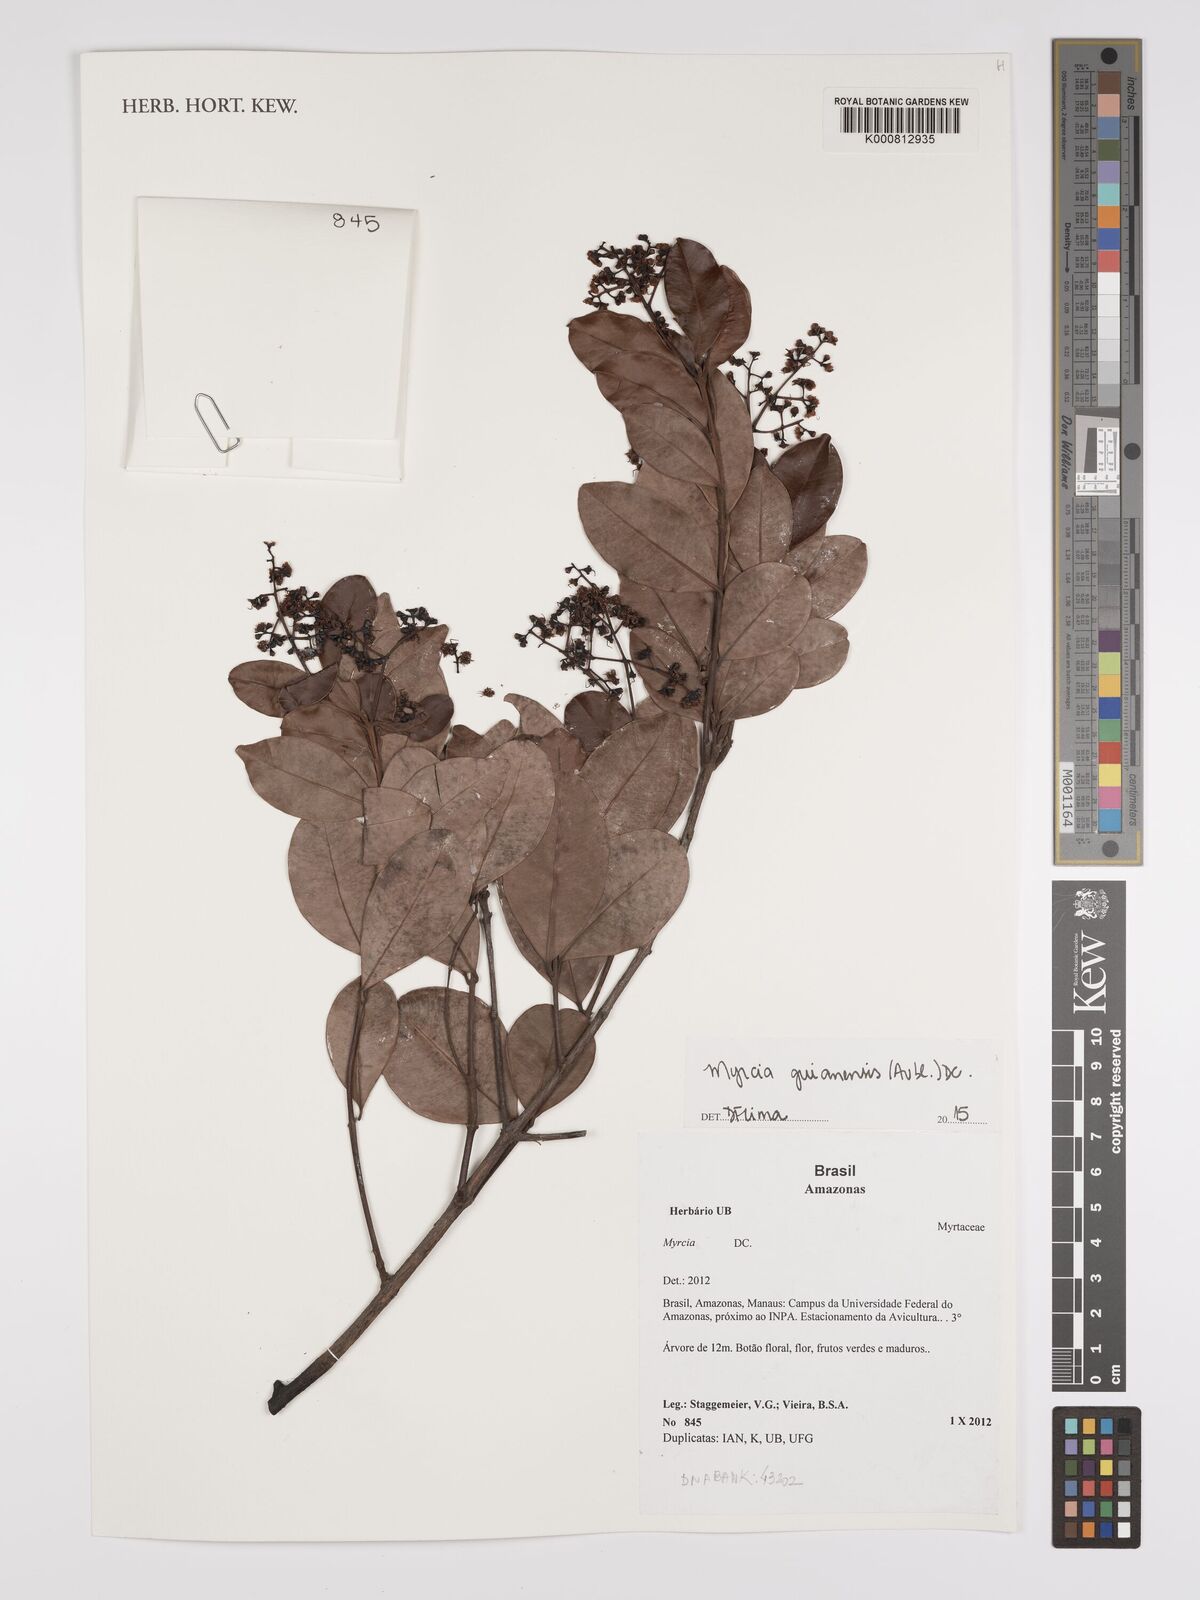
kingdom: Plantae
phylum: Tracheophyta
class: Magnoliopsida
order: Myrtales
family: Myrtaceae
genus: Myrcia
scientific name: Myrcia guianensis
